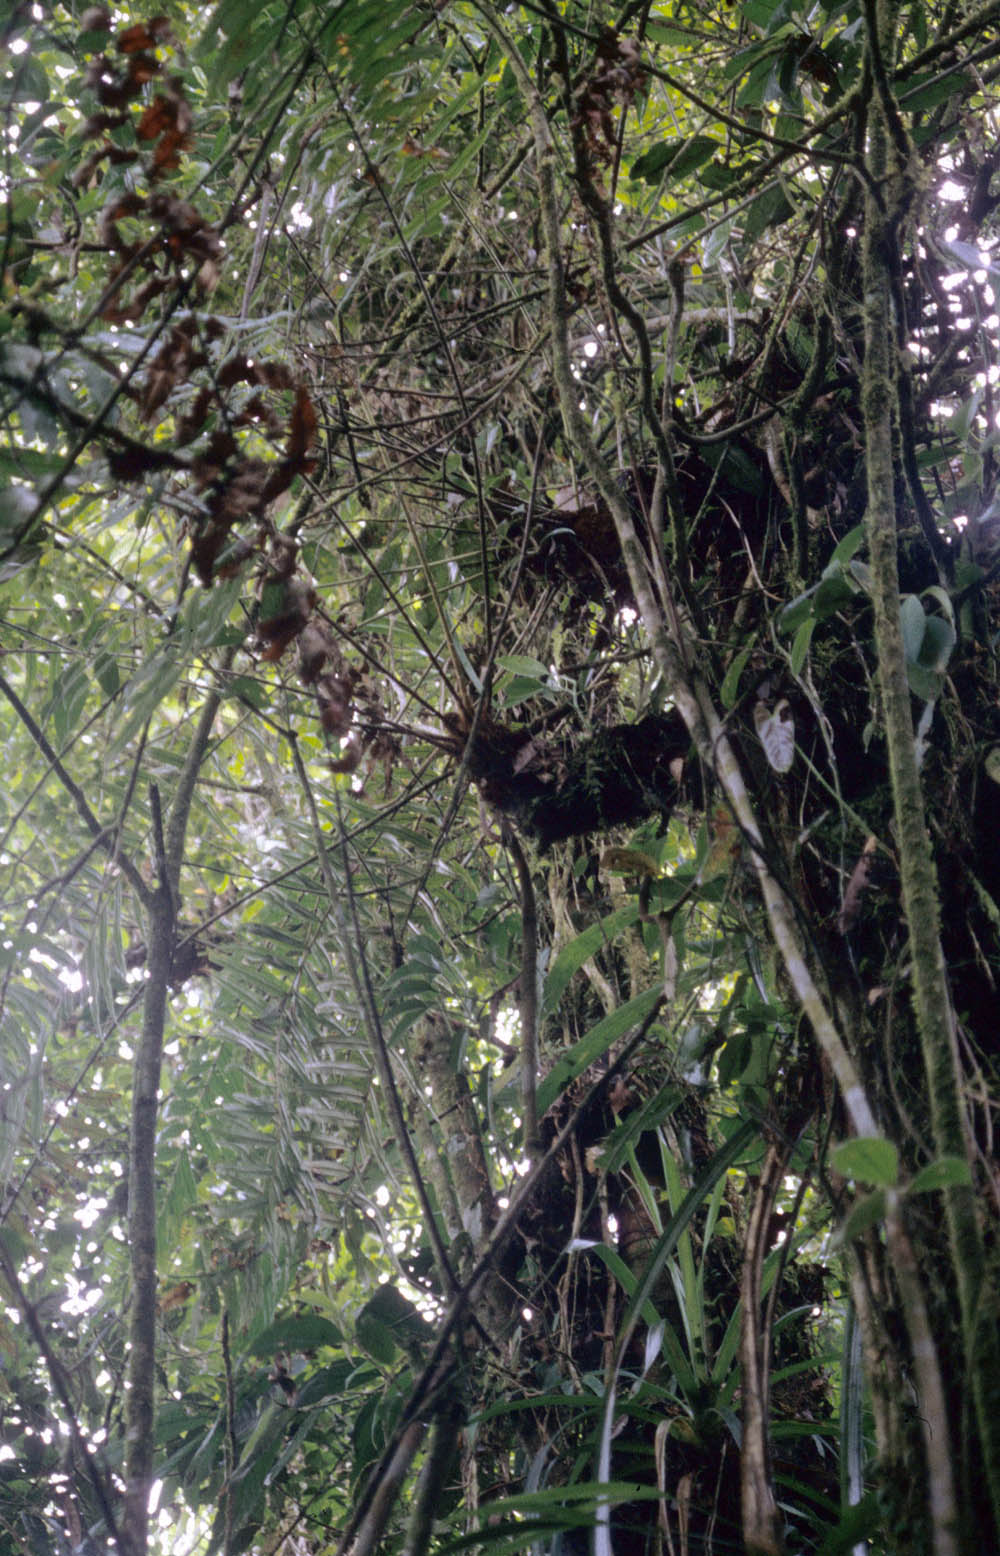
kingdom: Plantae
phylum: Tracheophyta
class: Polypodiopsida
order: Polypodiales
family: Blechnaceae
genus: Blechnum
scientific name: Blechnum
